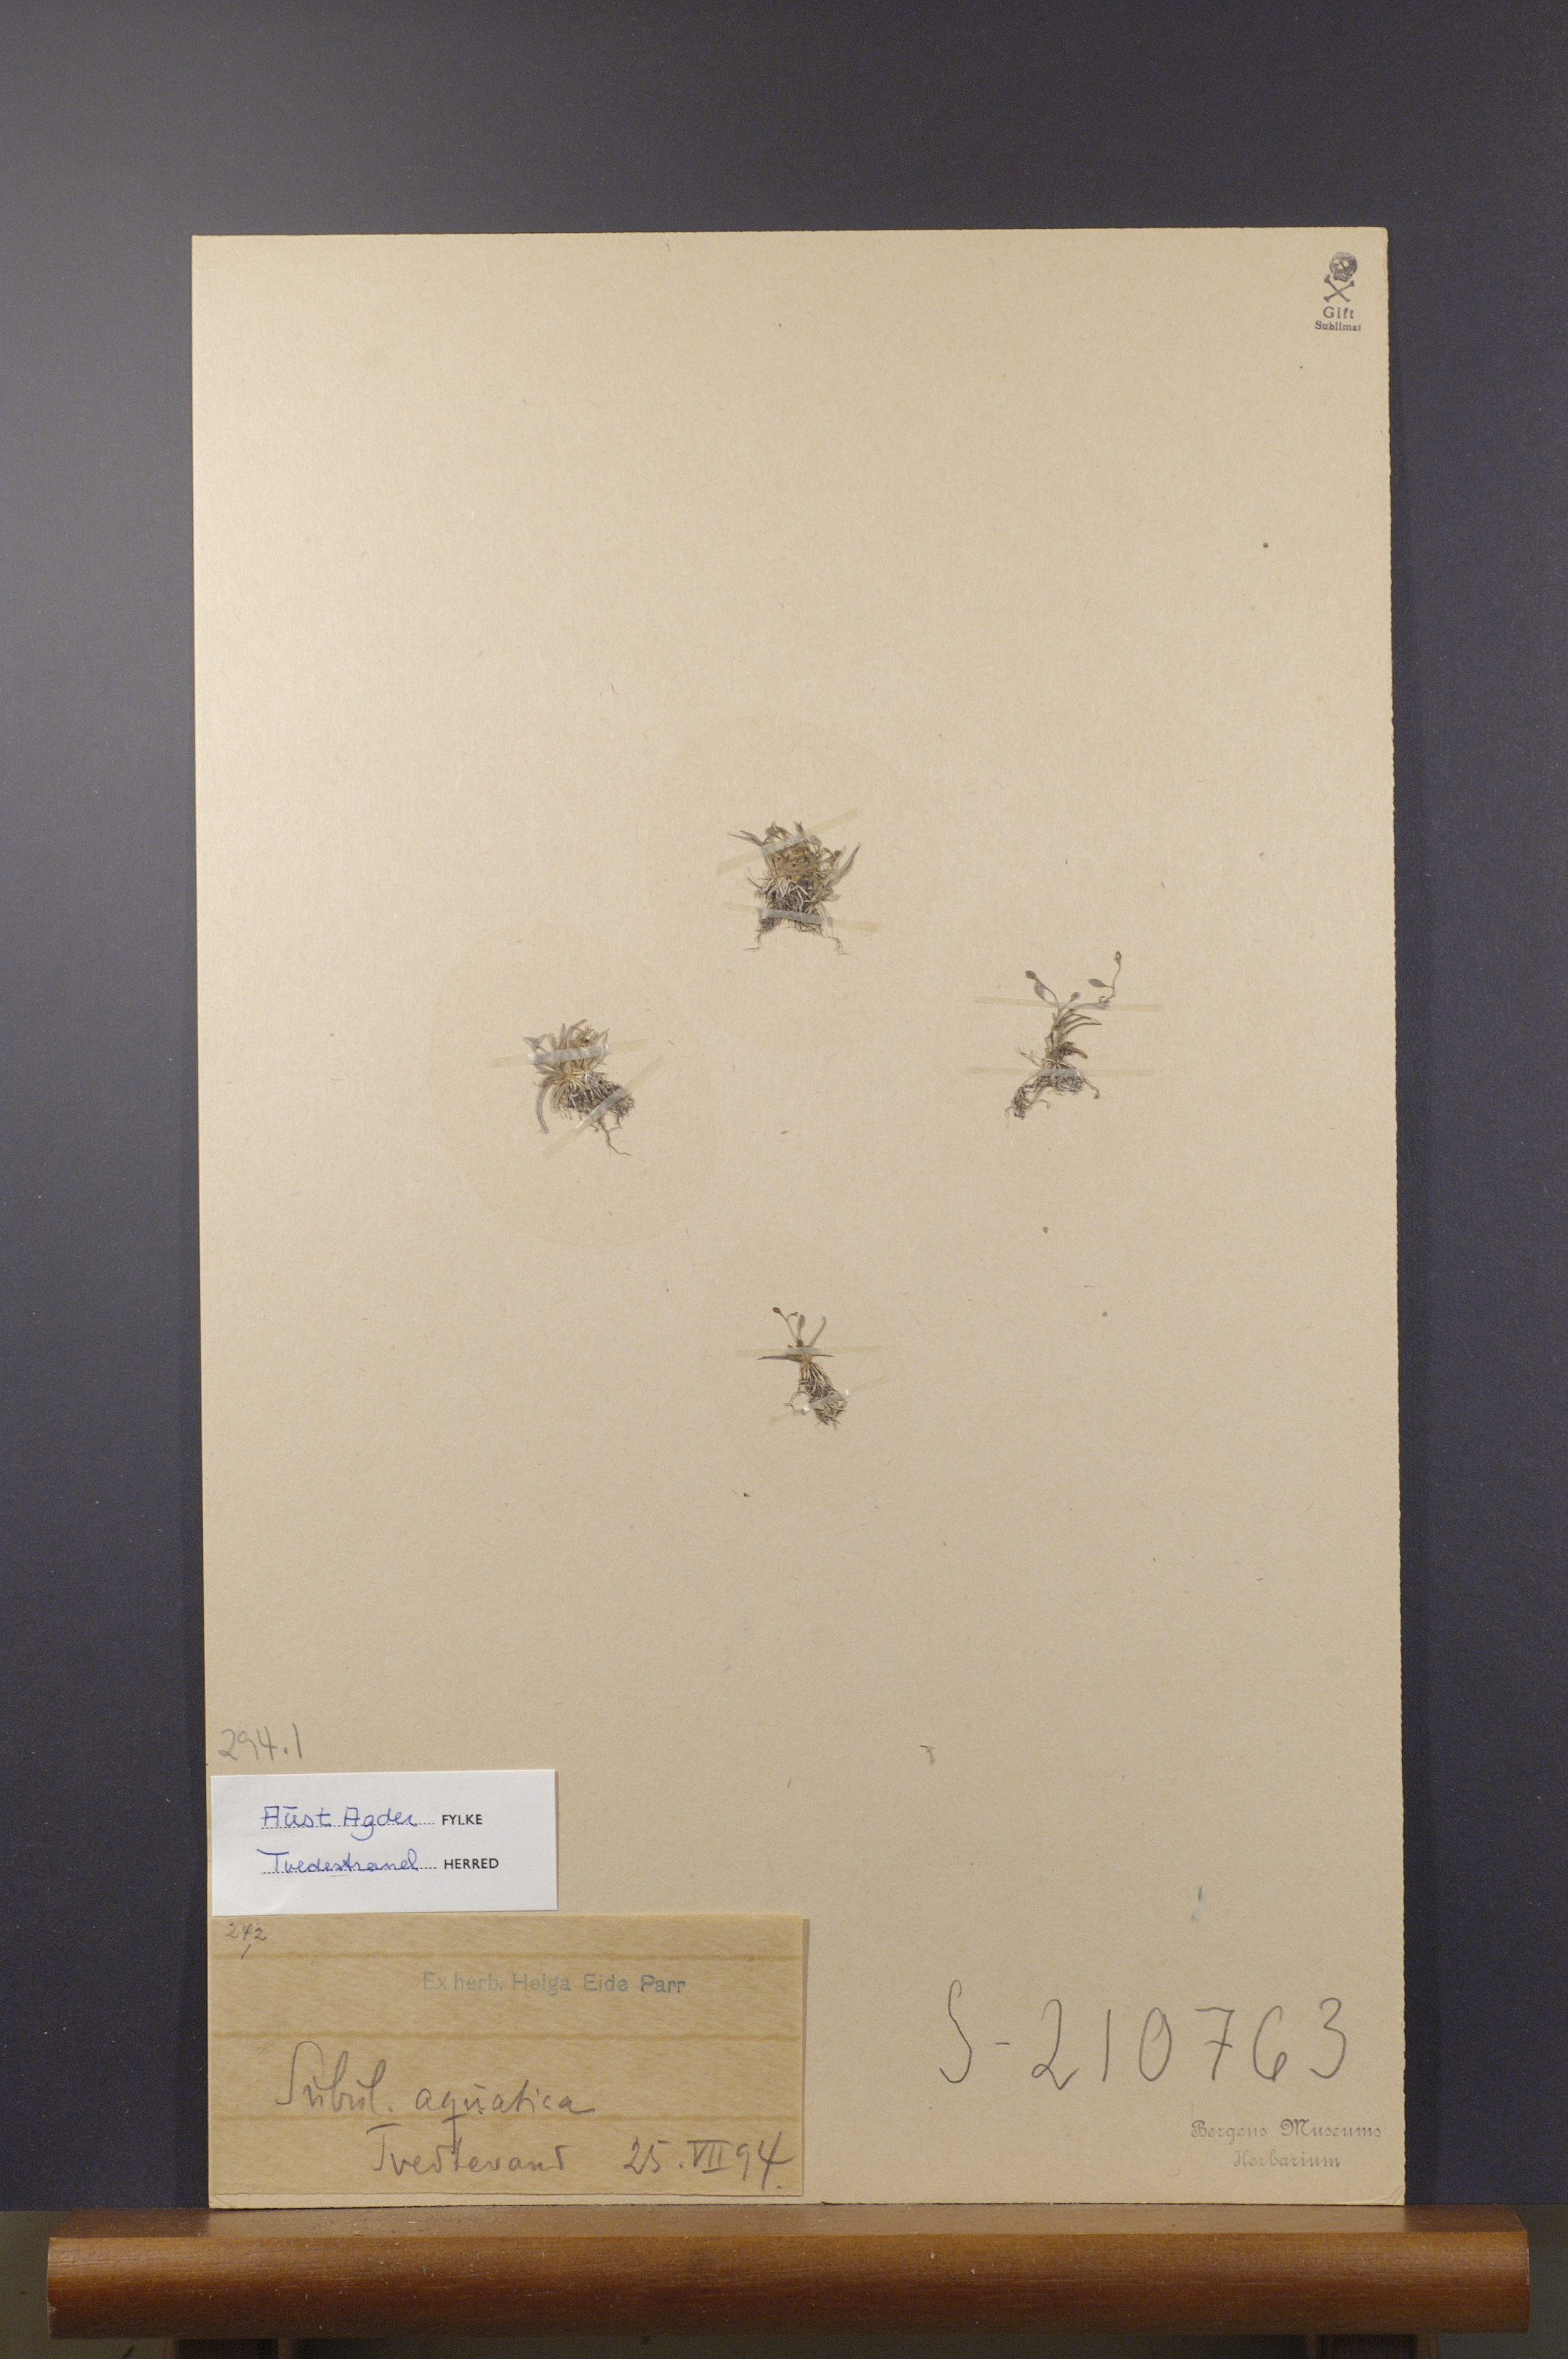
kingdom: Plantae
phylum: Tracheophyta
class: Magnoliopsida
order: Brassicales
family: Brassicaceae
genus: Subularia
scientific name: Subularia aquatica
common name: Awlwort
